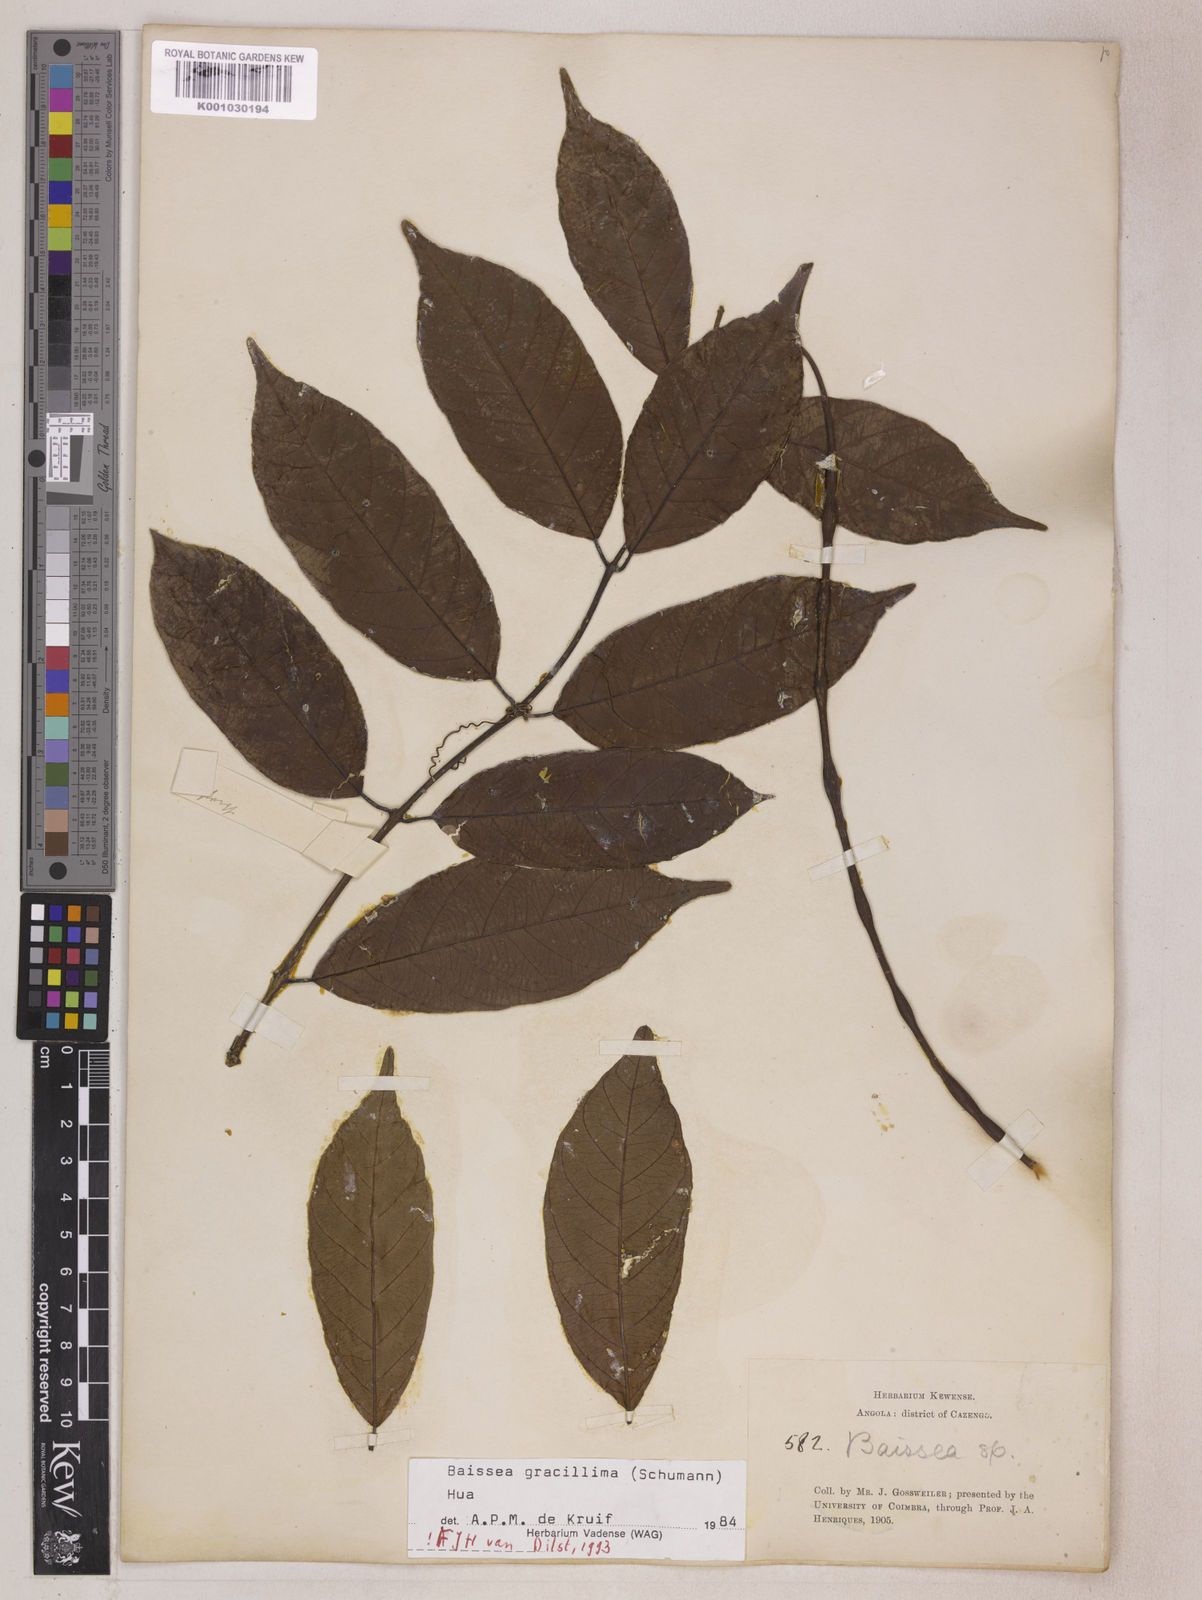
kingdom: Plantae
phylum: Tracheophyta
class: Magnoliopsida
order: Gentianales
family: Apocynaceae
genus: Baissea
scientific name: Baissea gracillima
